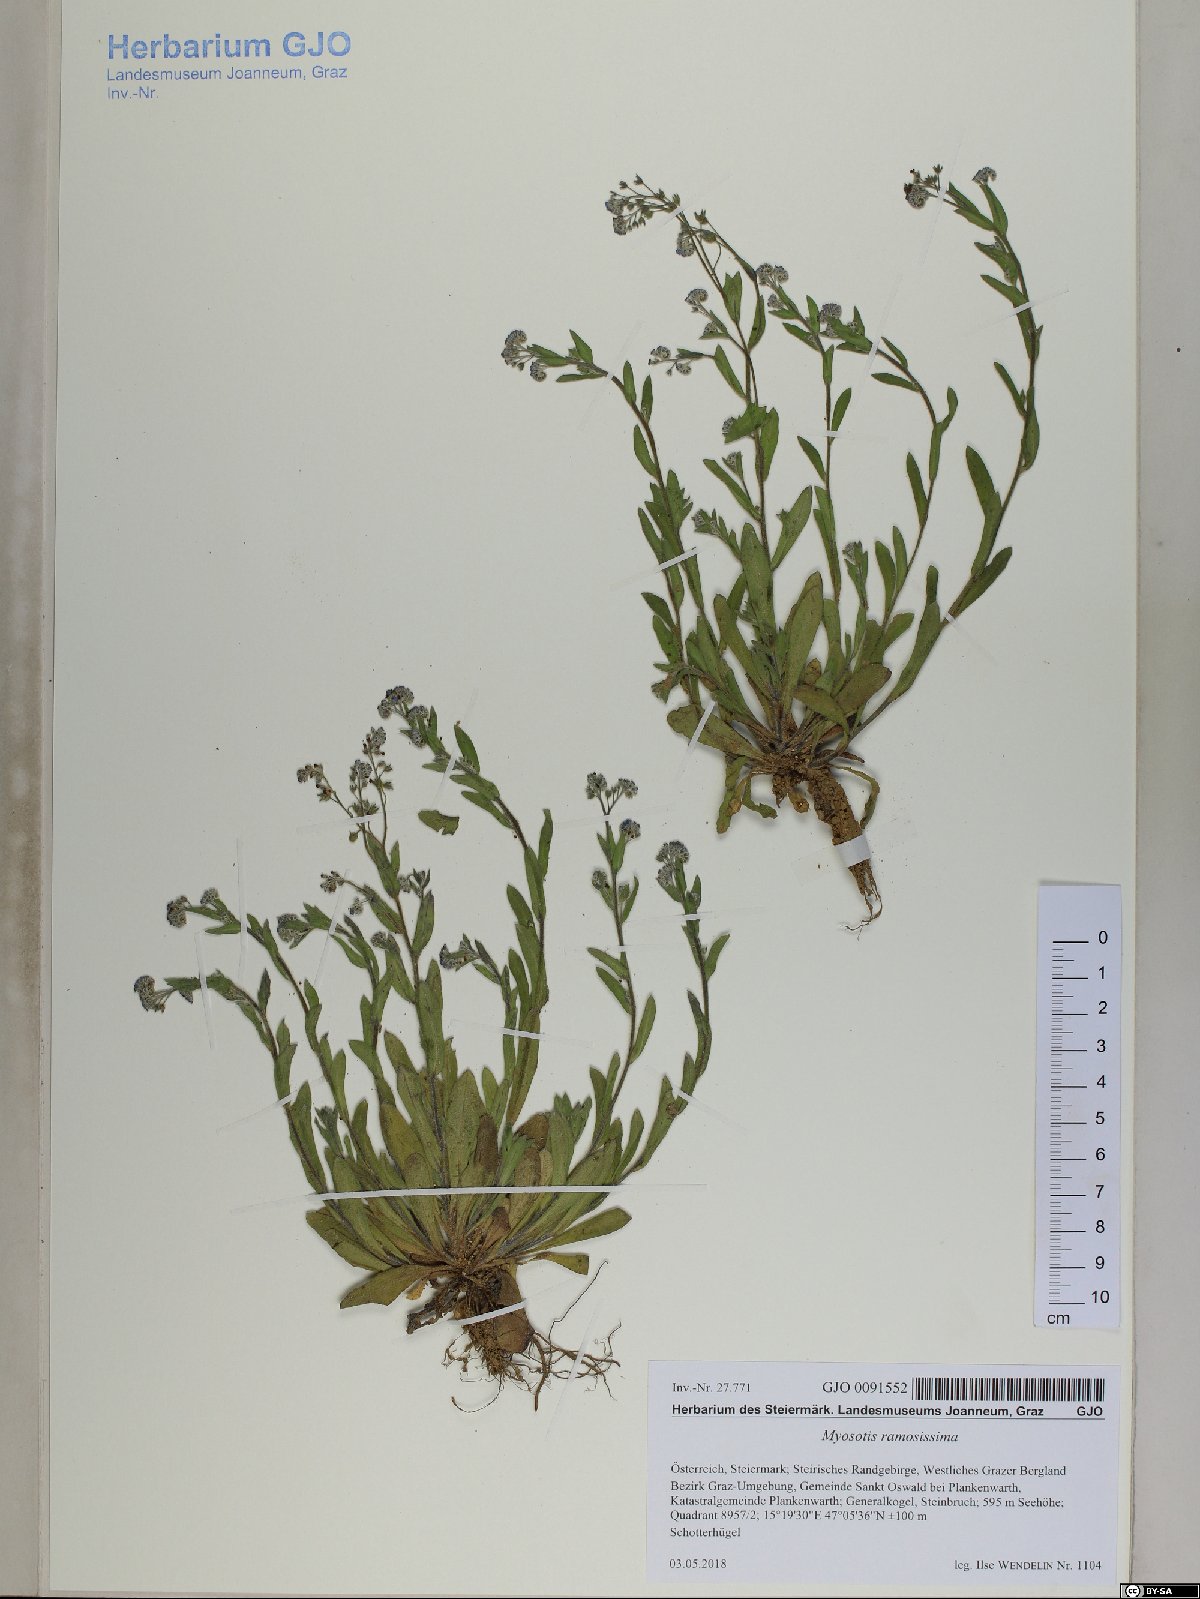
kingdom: Plantae
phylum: Tracheophyta
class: Magnoliopsida
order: Boraginales
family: Boraginaceae
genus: Myosotis
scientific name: Myosotis ramosissima
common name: Early forget-me-not
